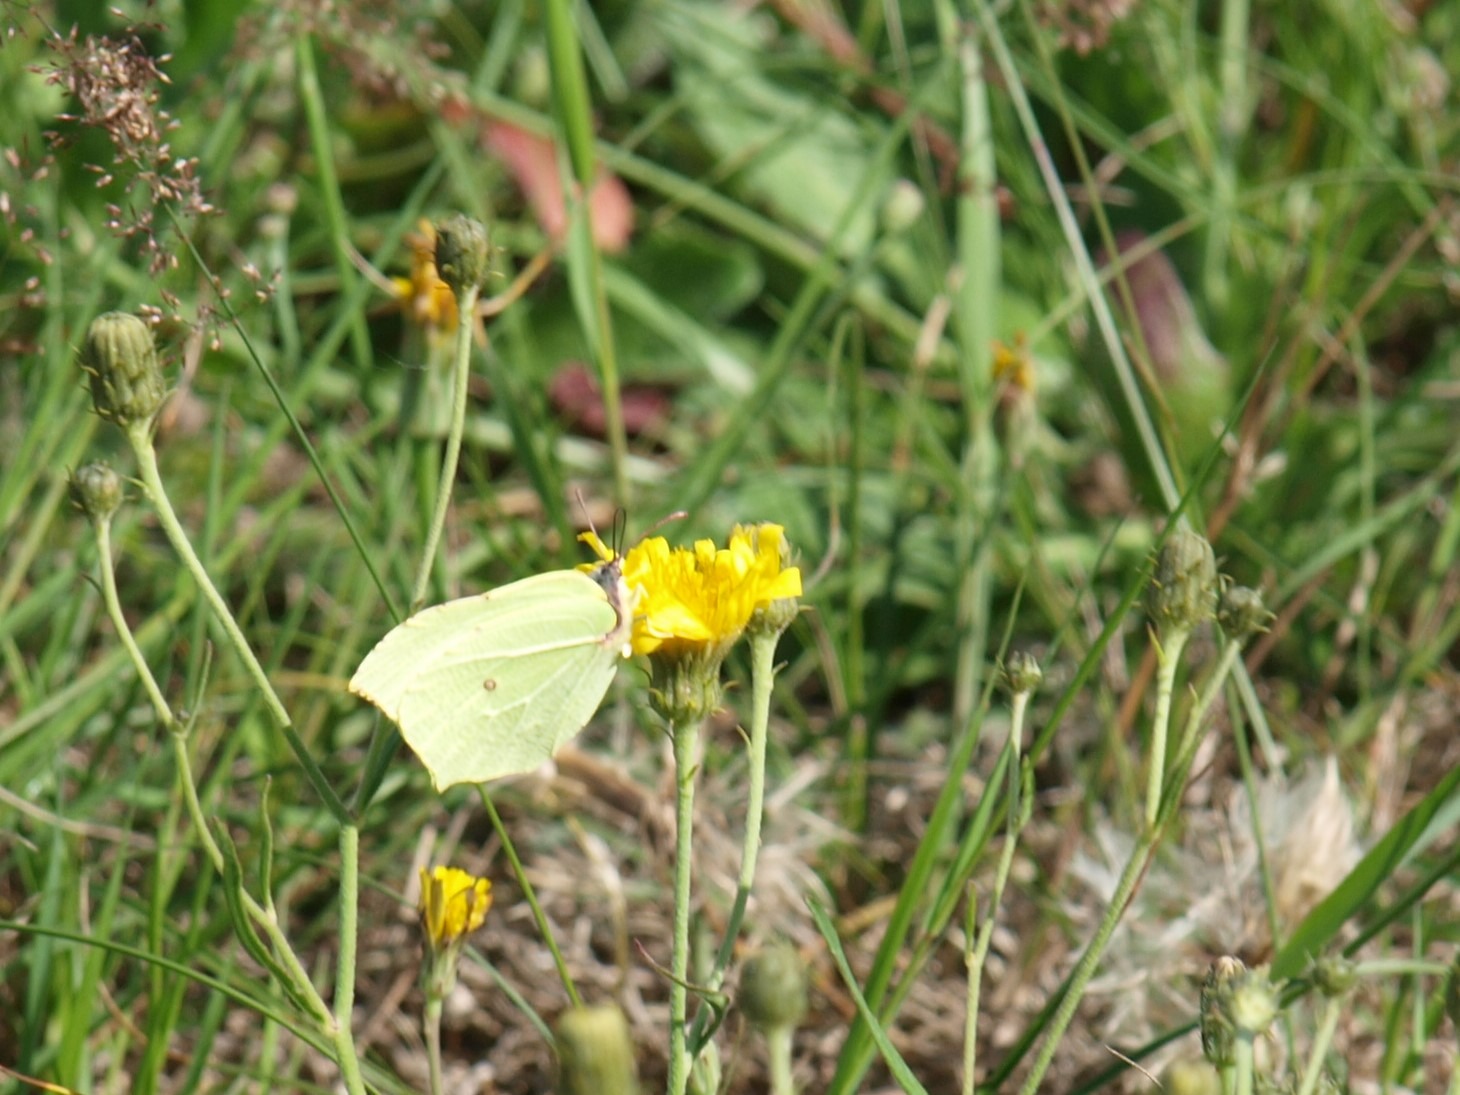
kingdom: Animalia
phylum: Arthropoda
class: Insecta
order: Lepidoptera
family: Pieridae
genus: Gonepteryx
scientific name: Gonepteryx rhamni
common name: Citronsommerfugl
